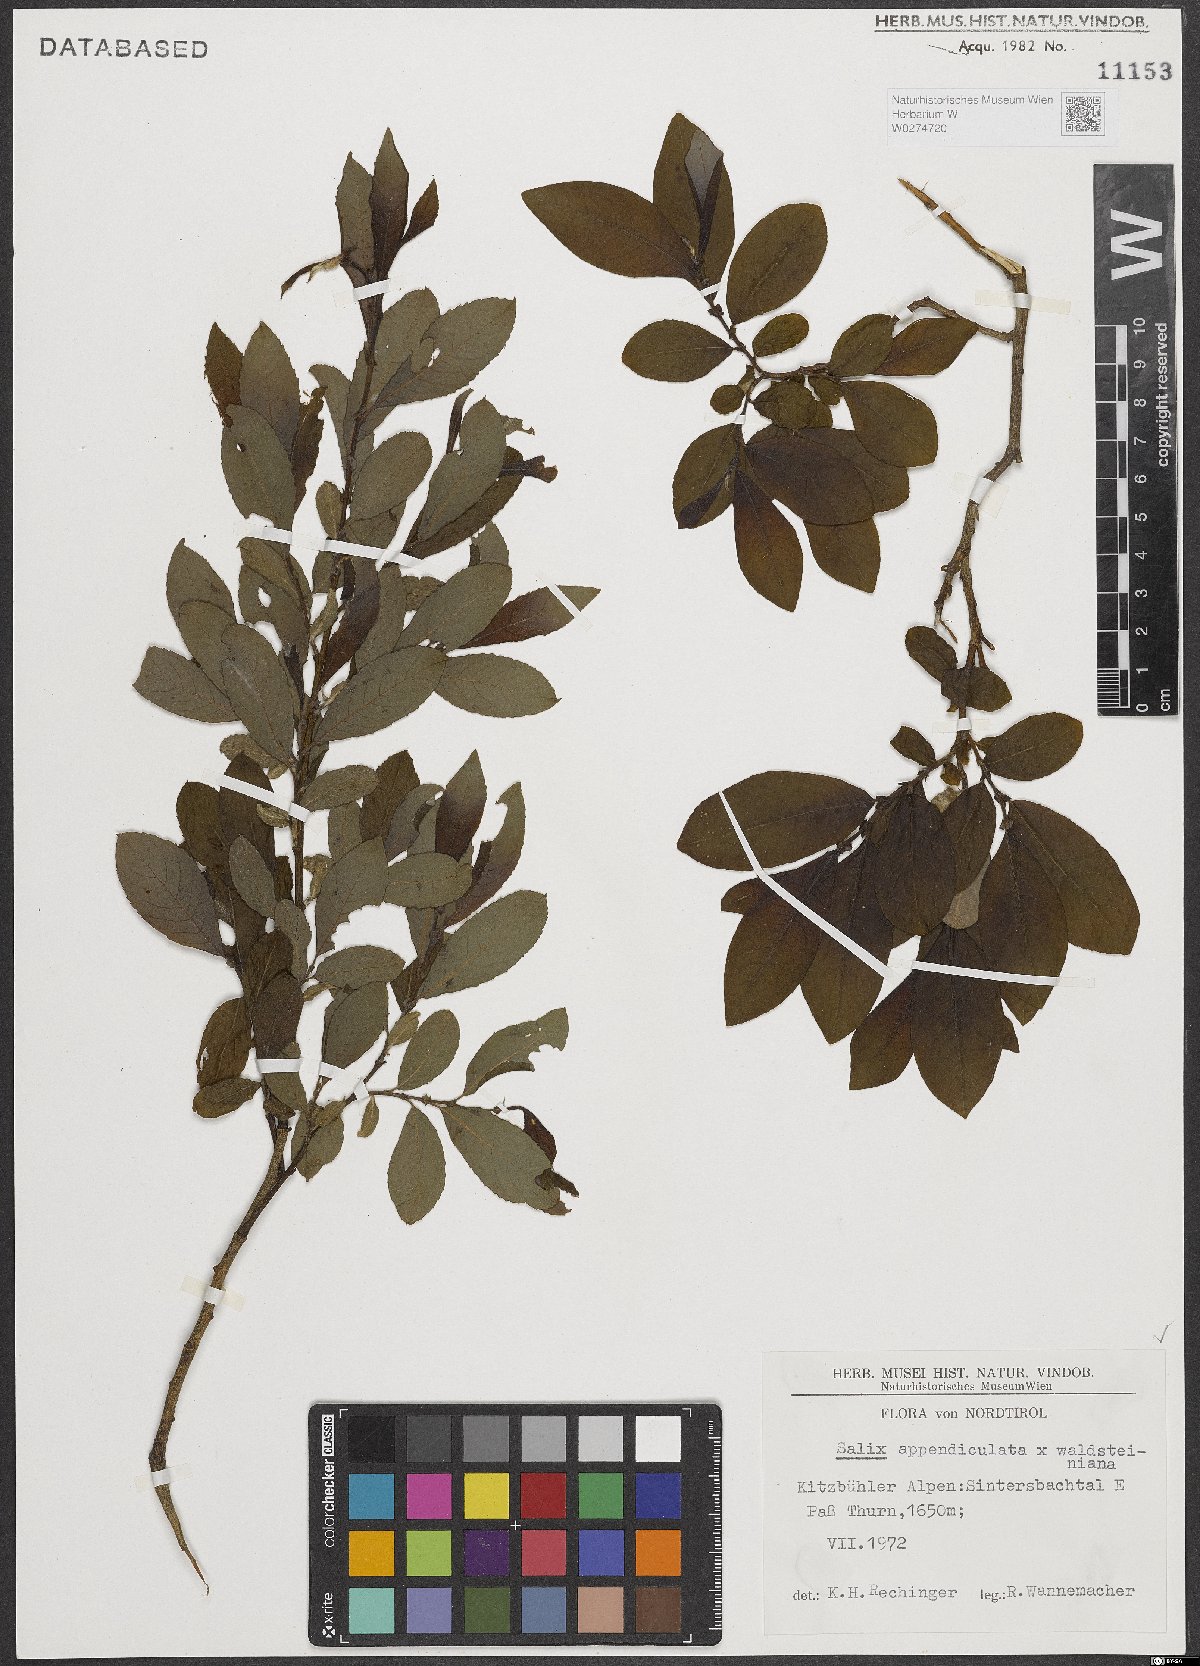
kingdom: Plantae
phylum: Tracheophyta
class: Magnoliopsida
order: Malpighiales
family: Salicaceae
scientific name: Salicaceae
